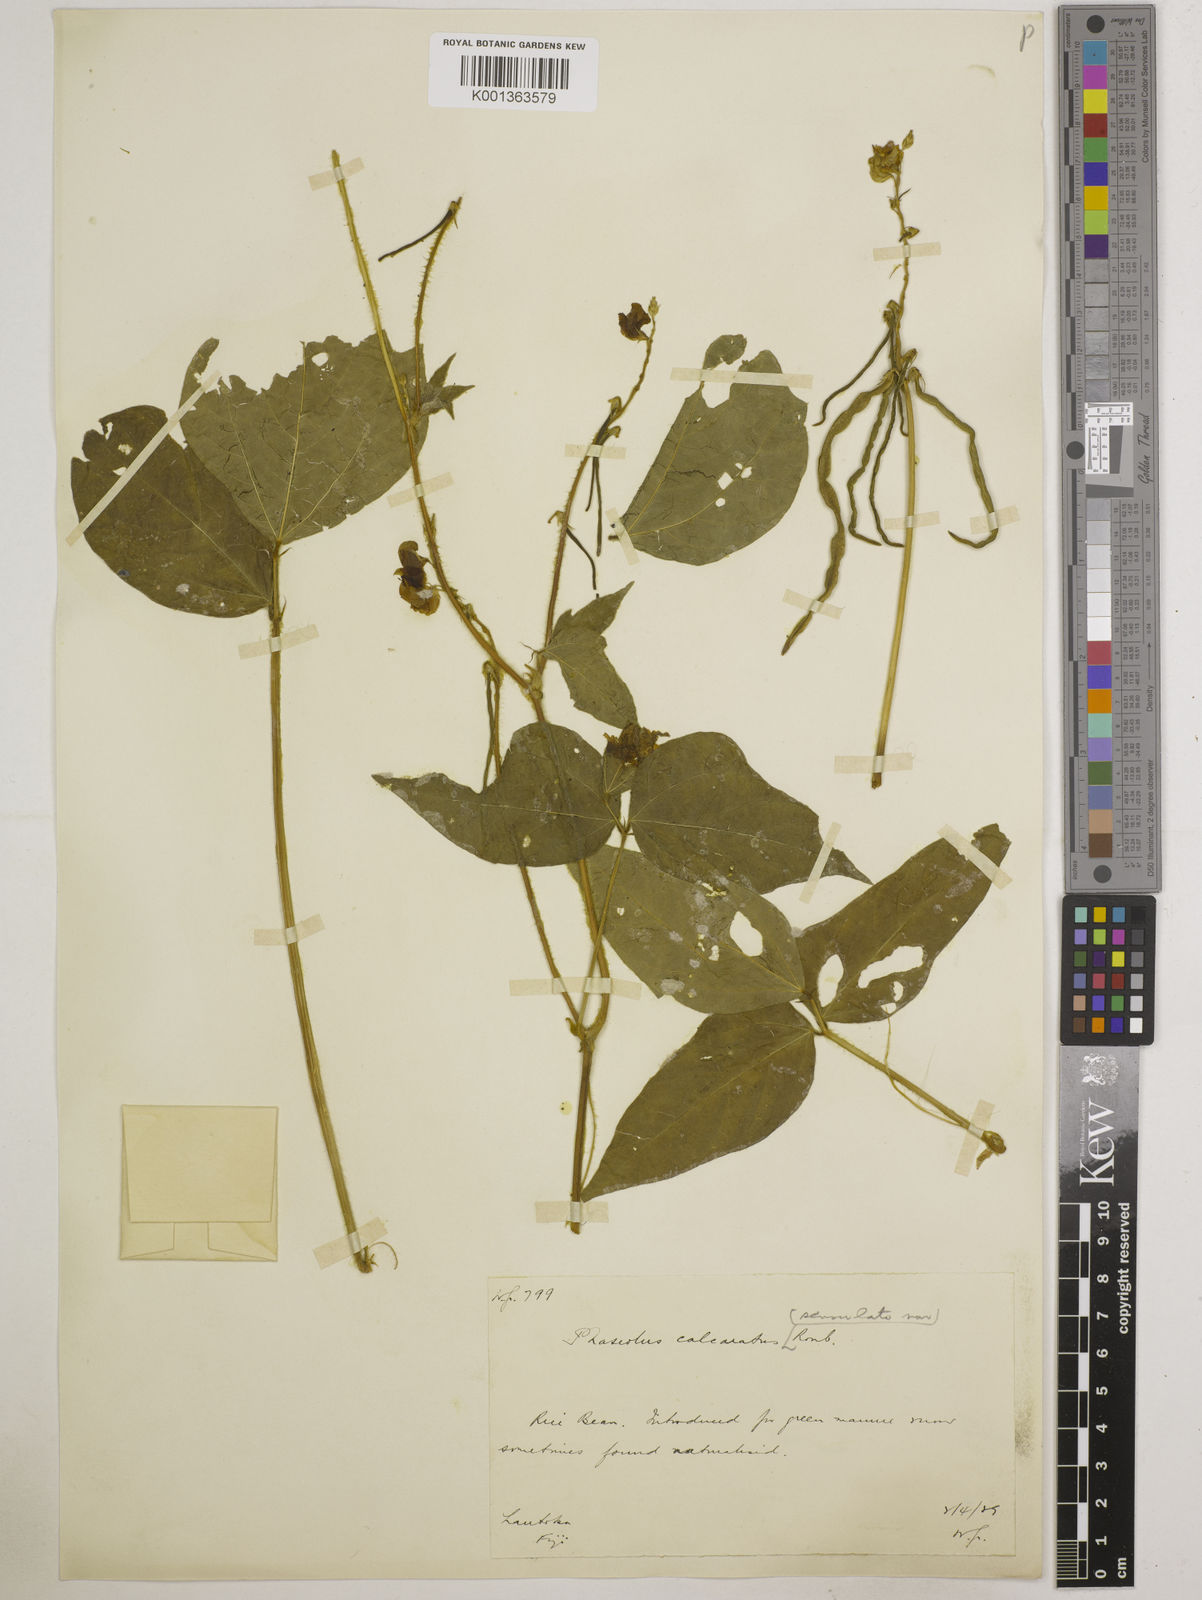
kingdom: Plantae
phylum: Tracheophyta
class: Magnoliopsida
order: Fabales
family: Fabaceae
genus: Vigna
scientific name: Vigna umbellata
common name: Oriental-bean
